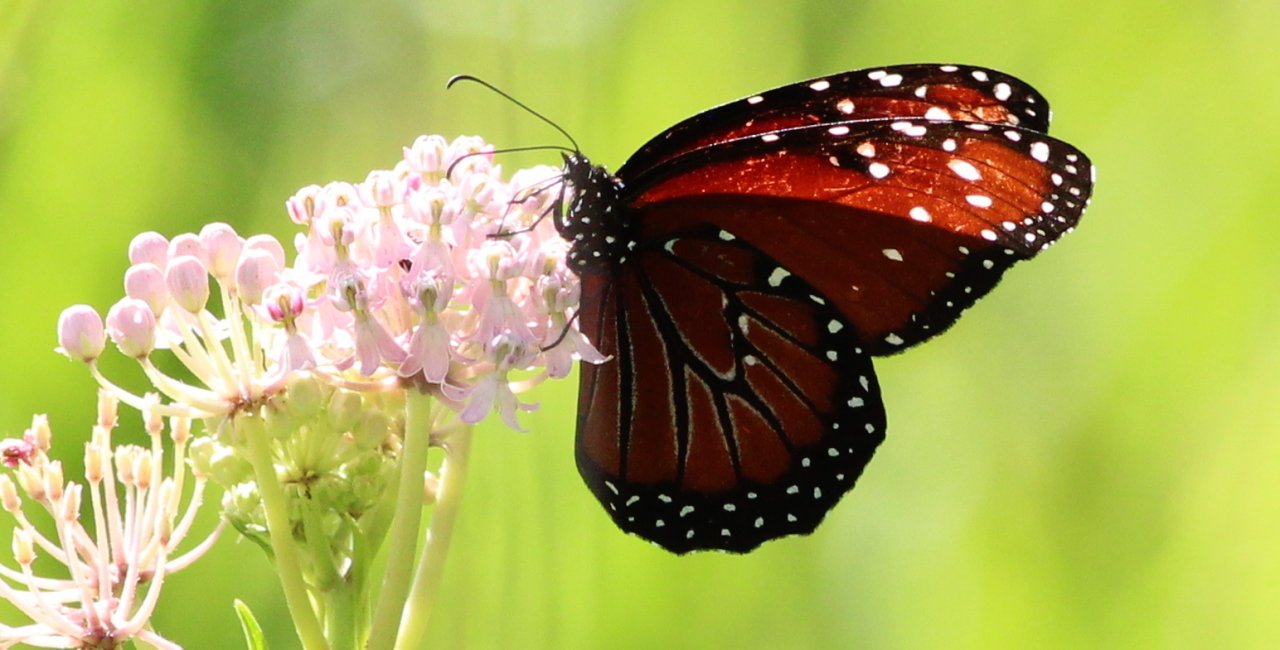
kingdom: Animalia
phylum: Arthropoda
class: Insecta
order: Lepidoptera
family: Nymphalidae
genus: Danaus
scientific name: Danaus gilippus
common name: Queen
